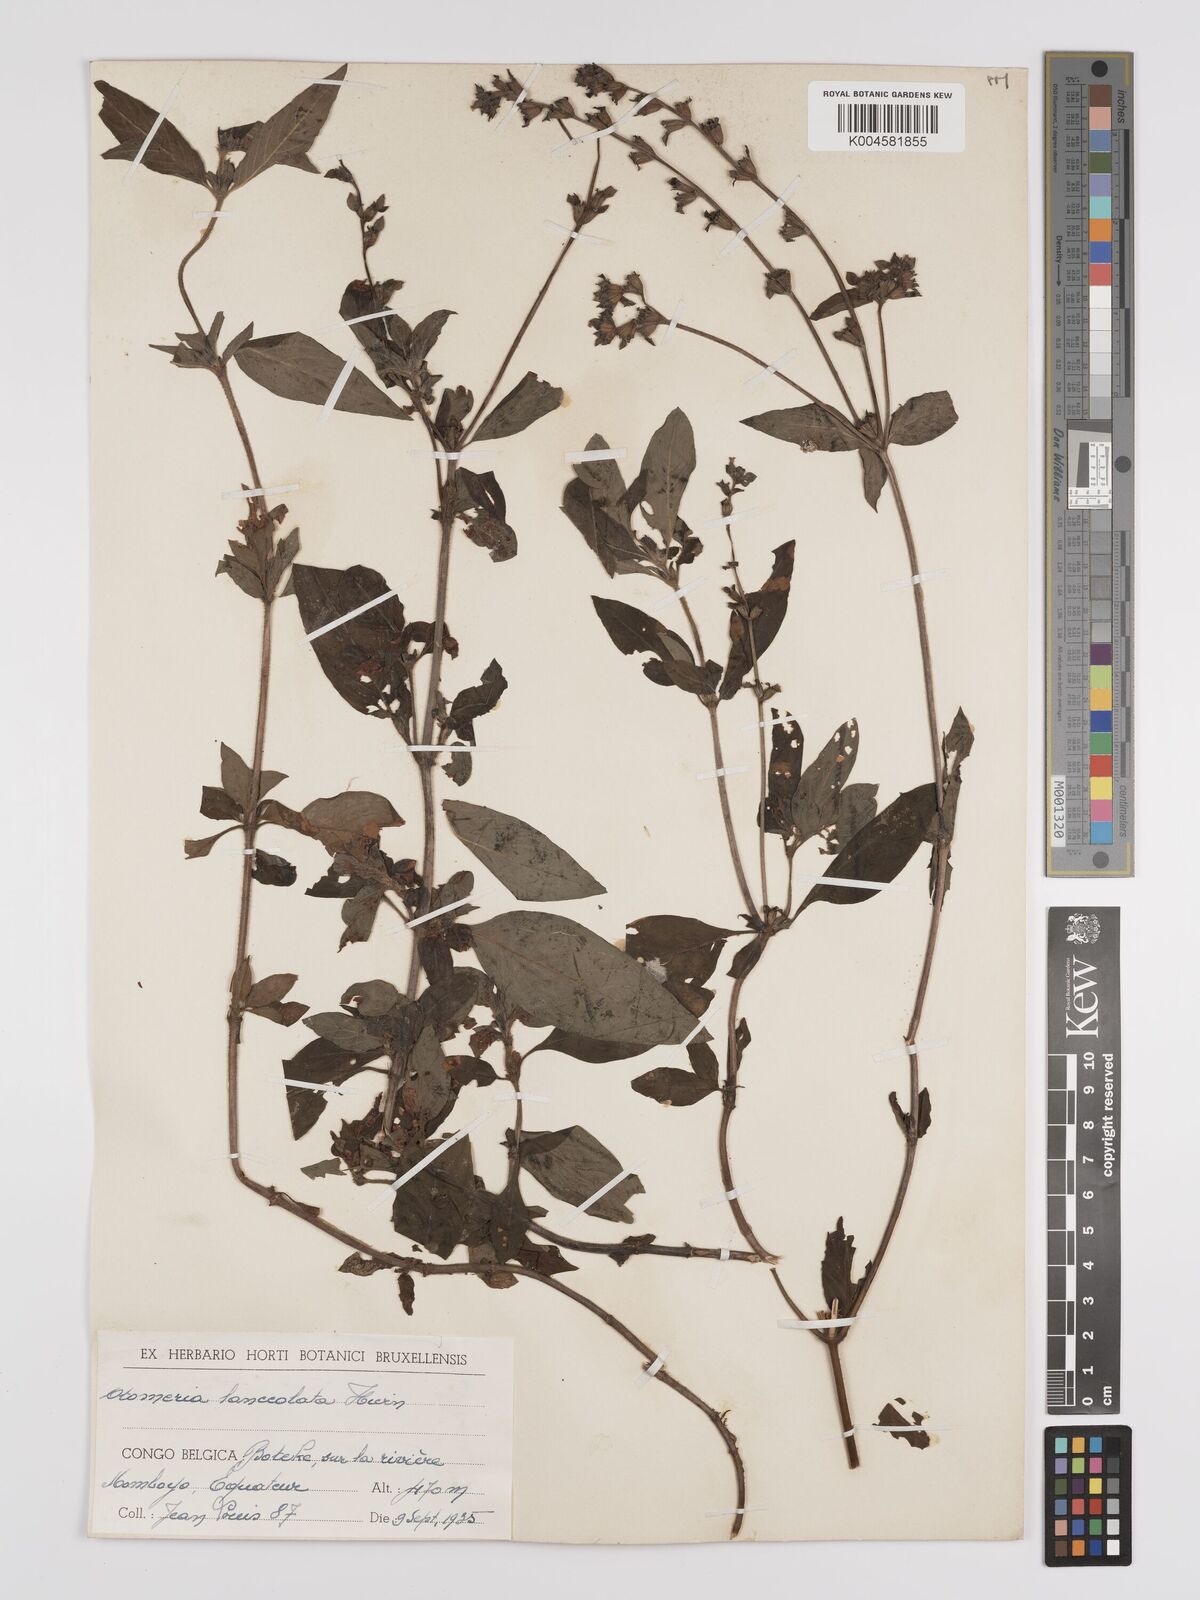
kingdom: Plantae
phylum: Tracheophyta
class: Magnoliopsida
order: Gentianales
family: Rubiaceae
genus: Otomeria
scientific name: Otomeria micrantha
